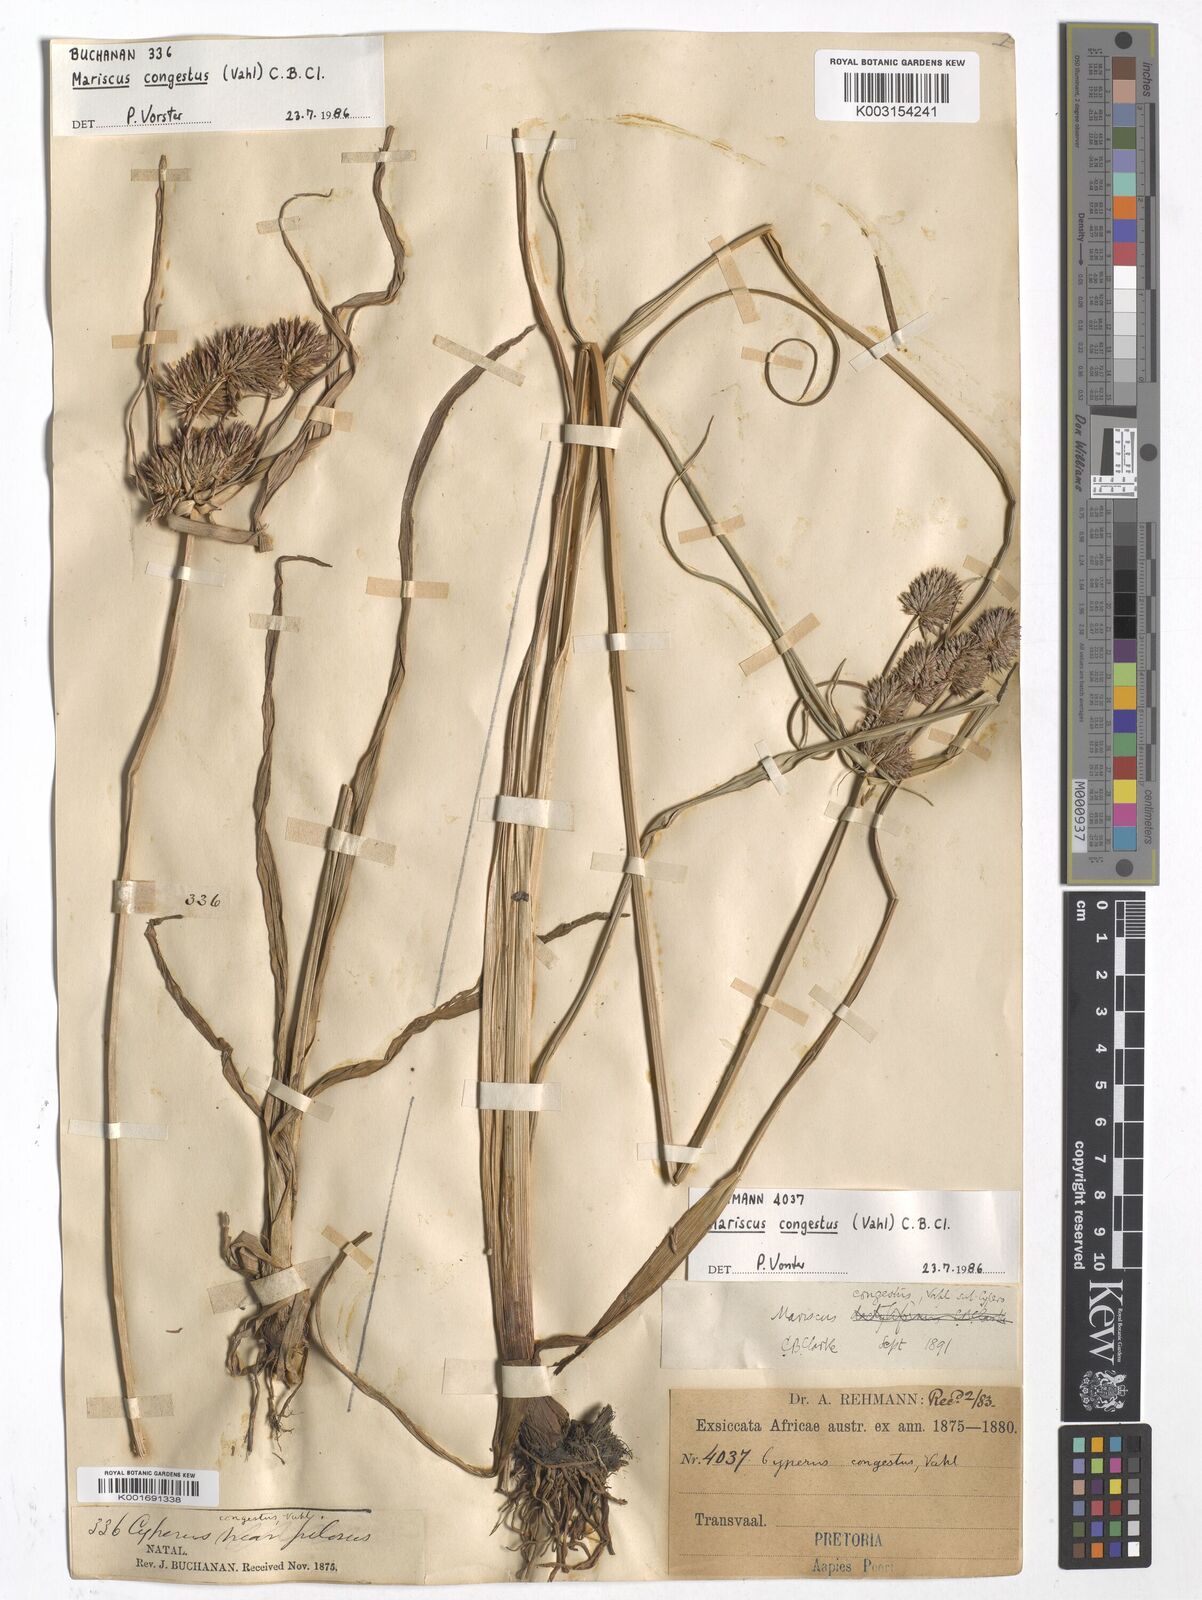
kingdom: Plantae
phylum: Tracheophyta
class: Liliopsida
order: Poales
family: Cyperaceae
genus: Cyperus
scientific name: Cyperus congestus
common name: Dense flat sedge
